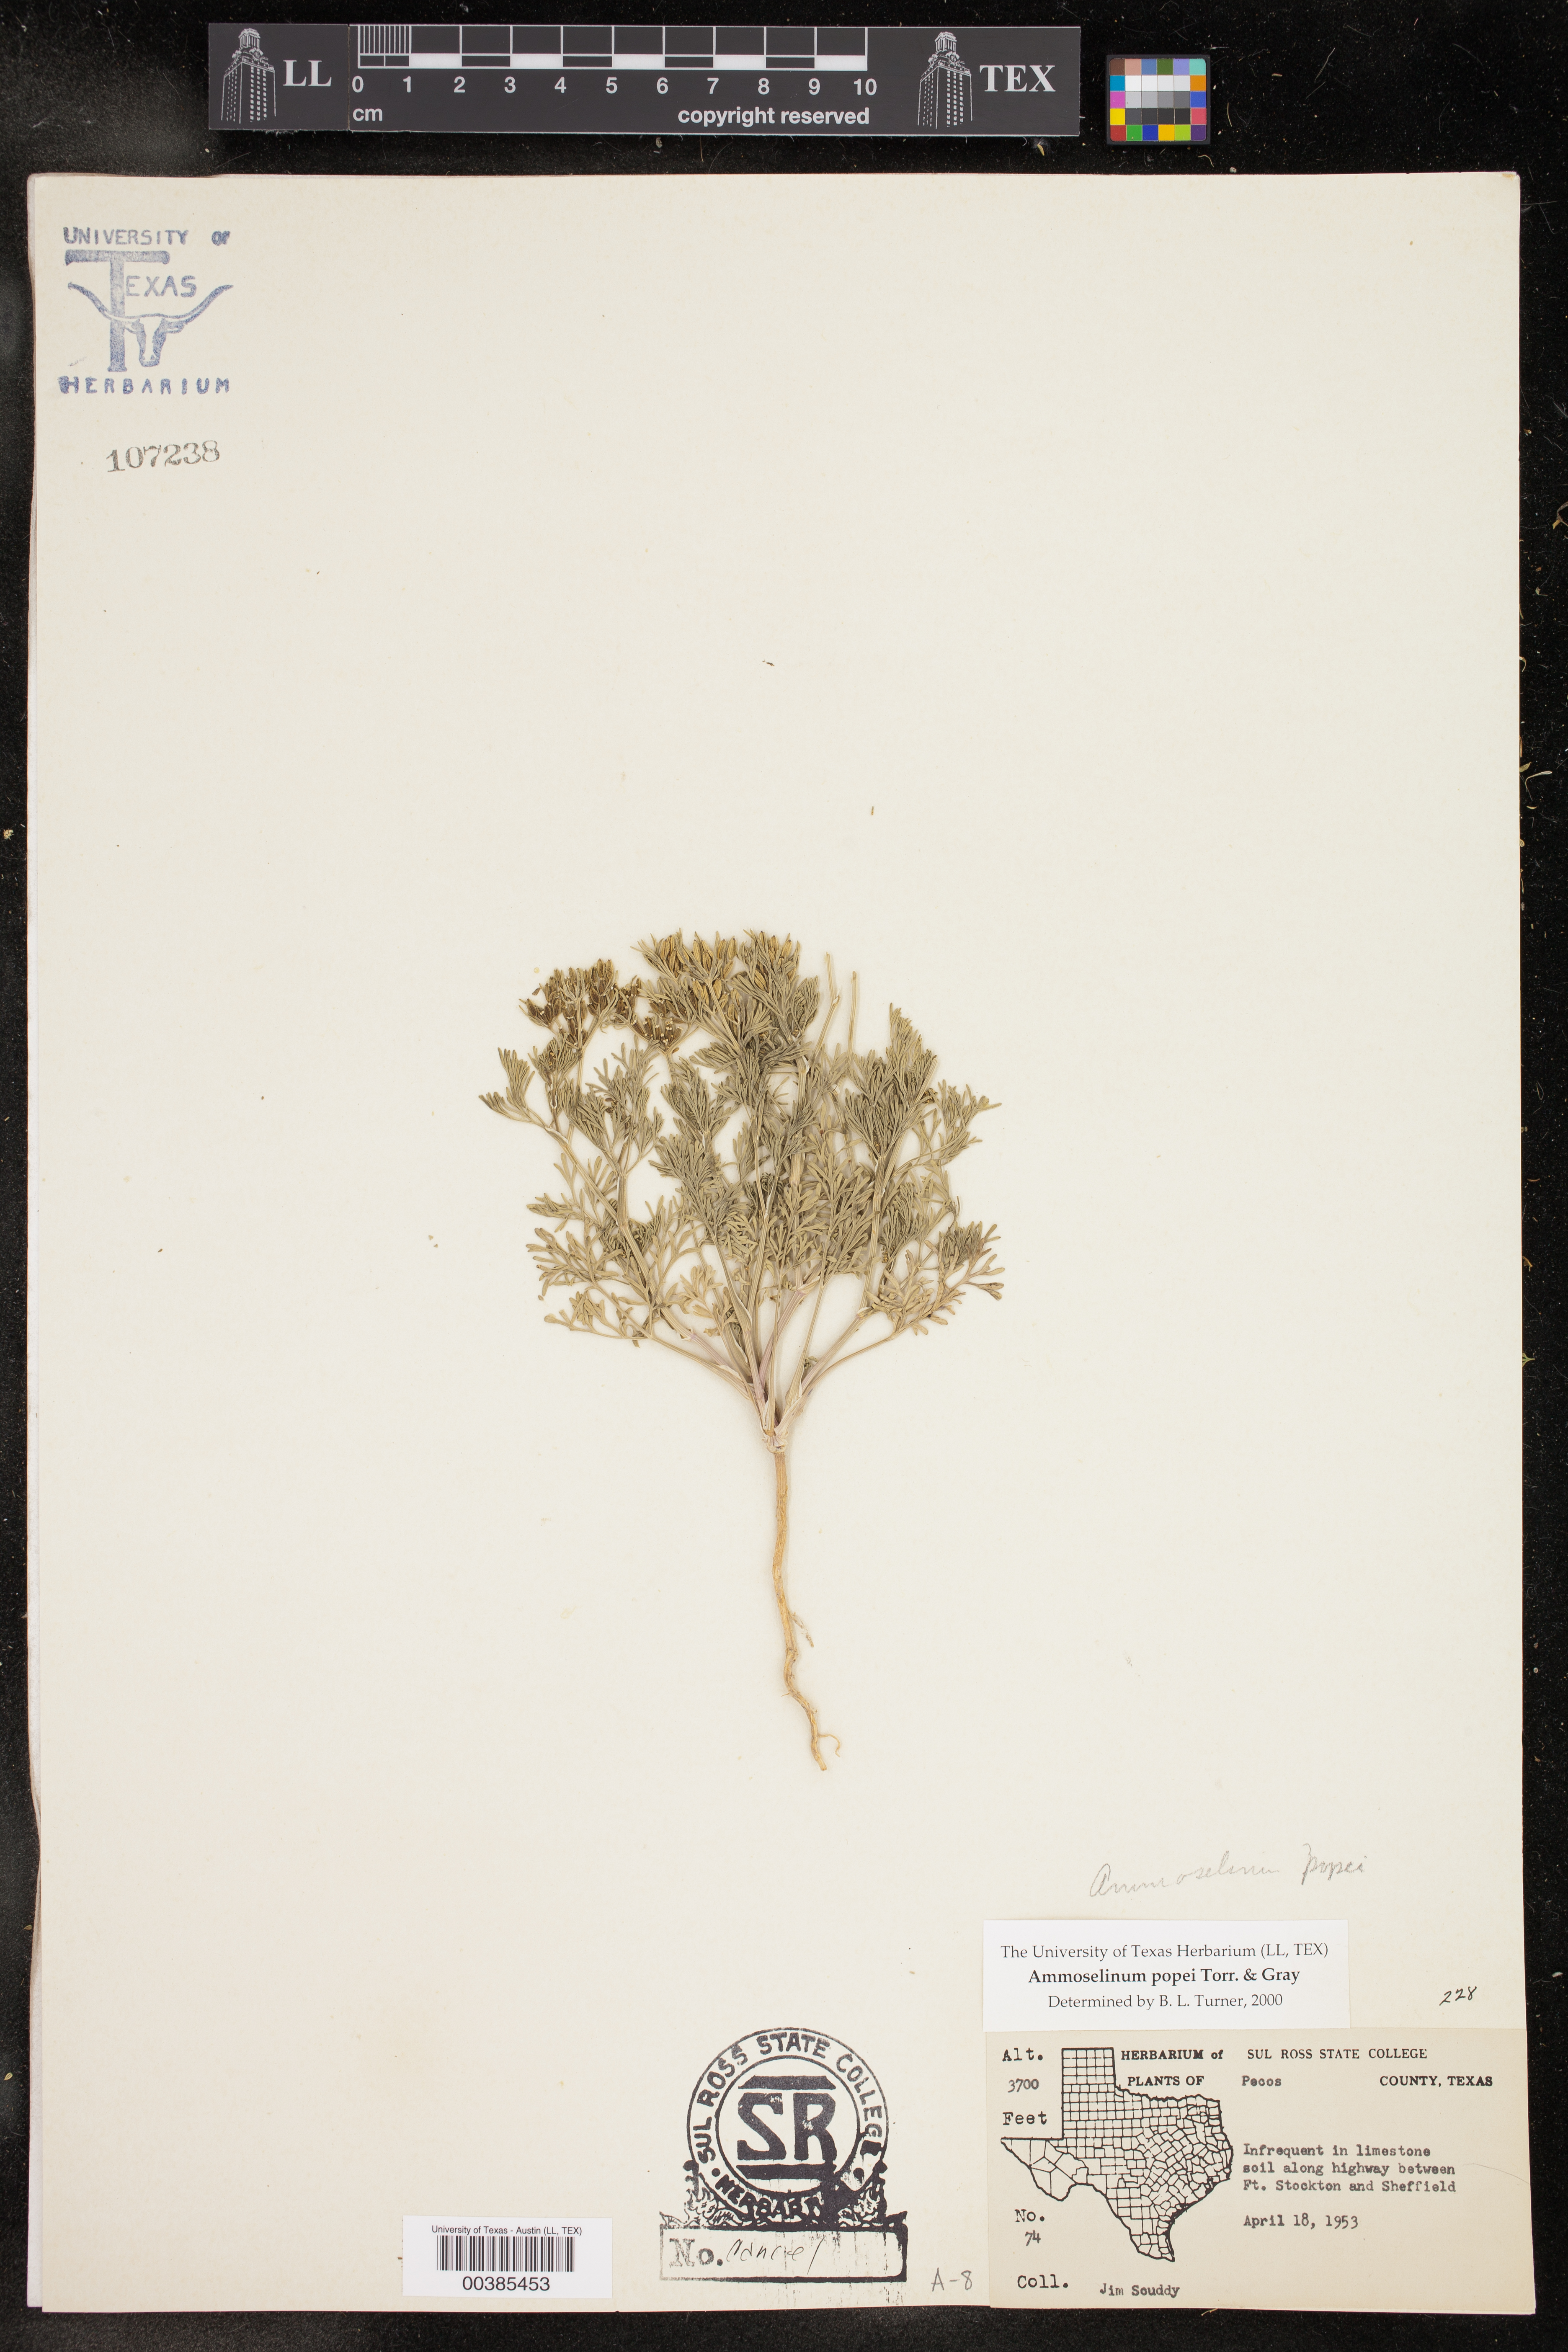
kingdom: Plantae
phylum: Tracheophyta
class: Magnoliopsida
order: Apiales
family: Apiaceae
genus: Ammoselinum
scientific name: Ammoselinum popei
